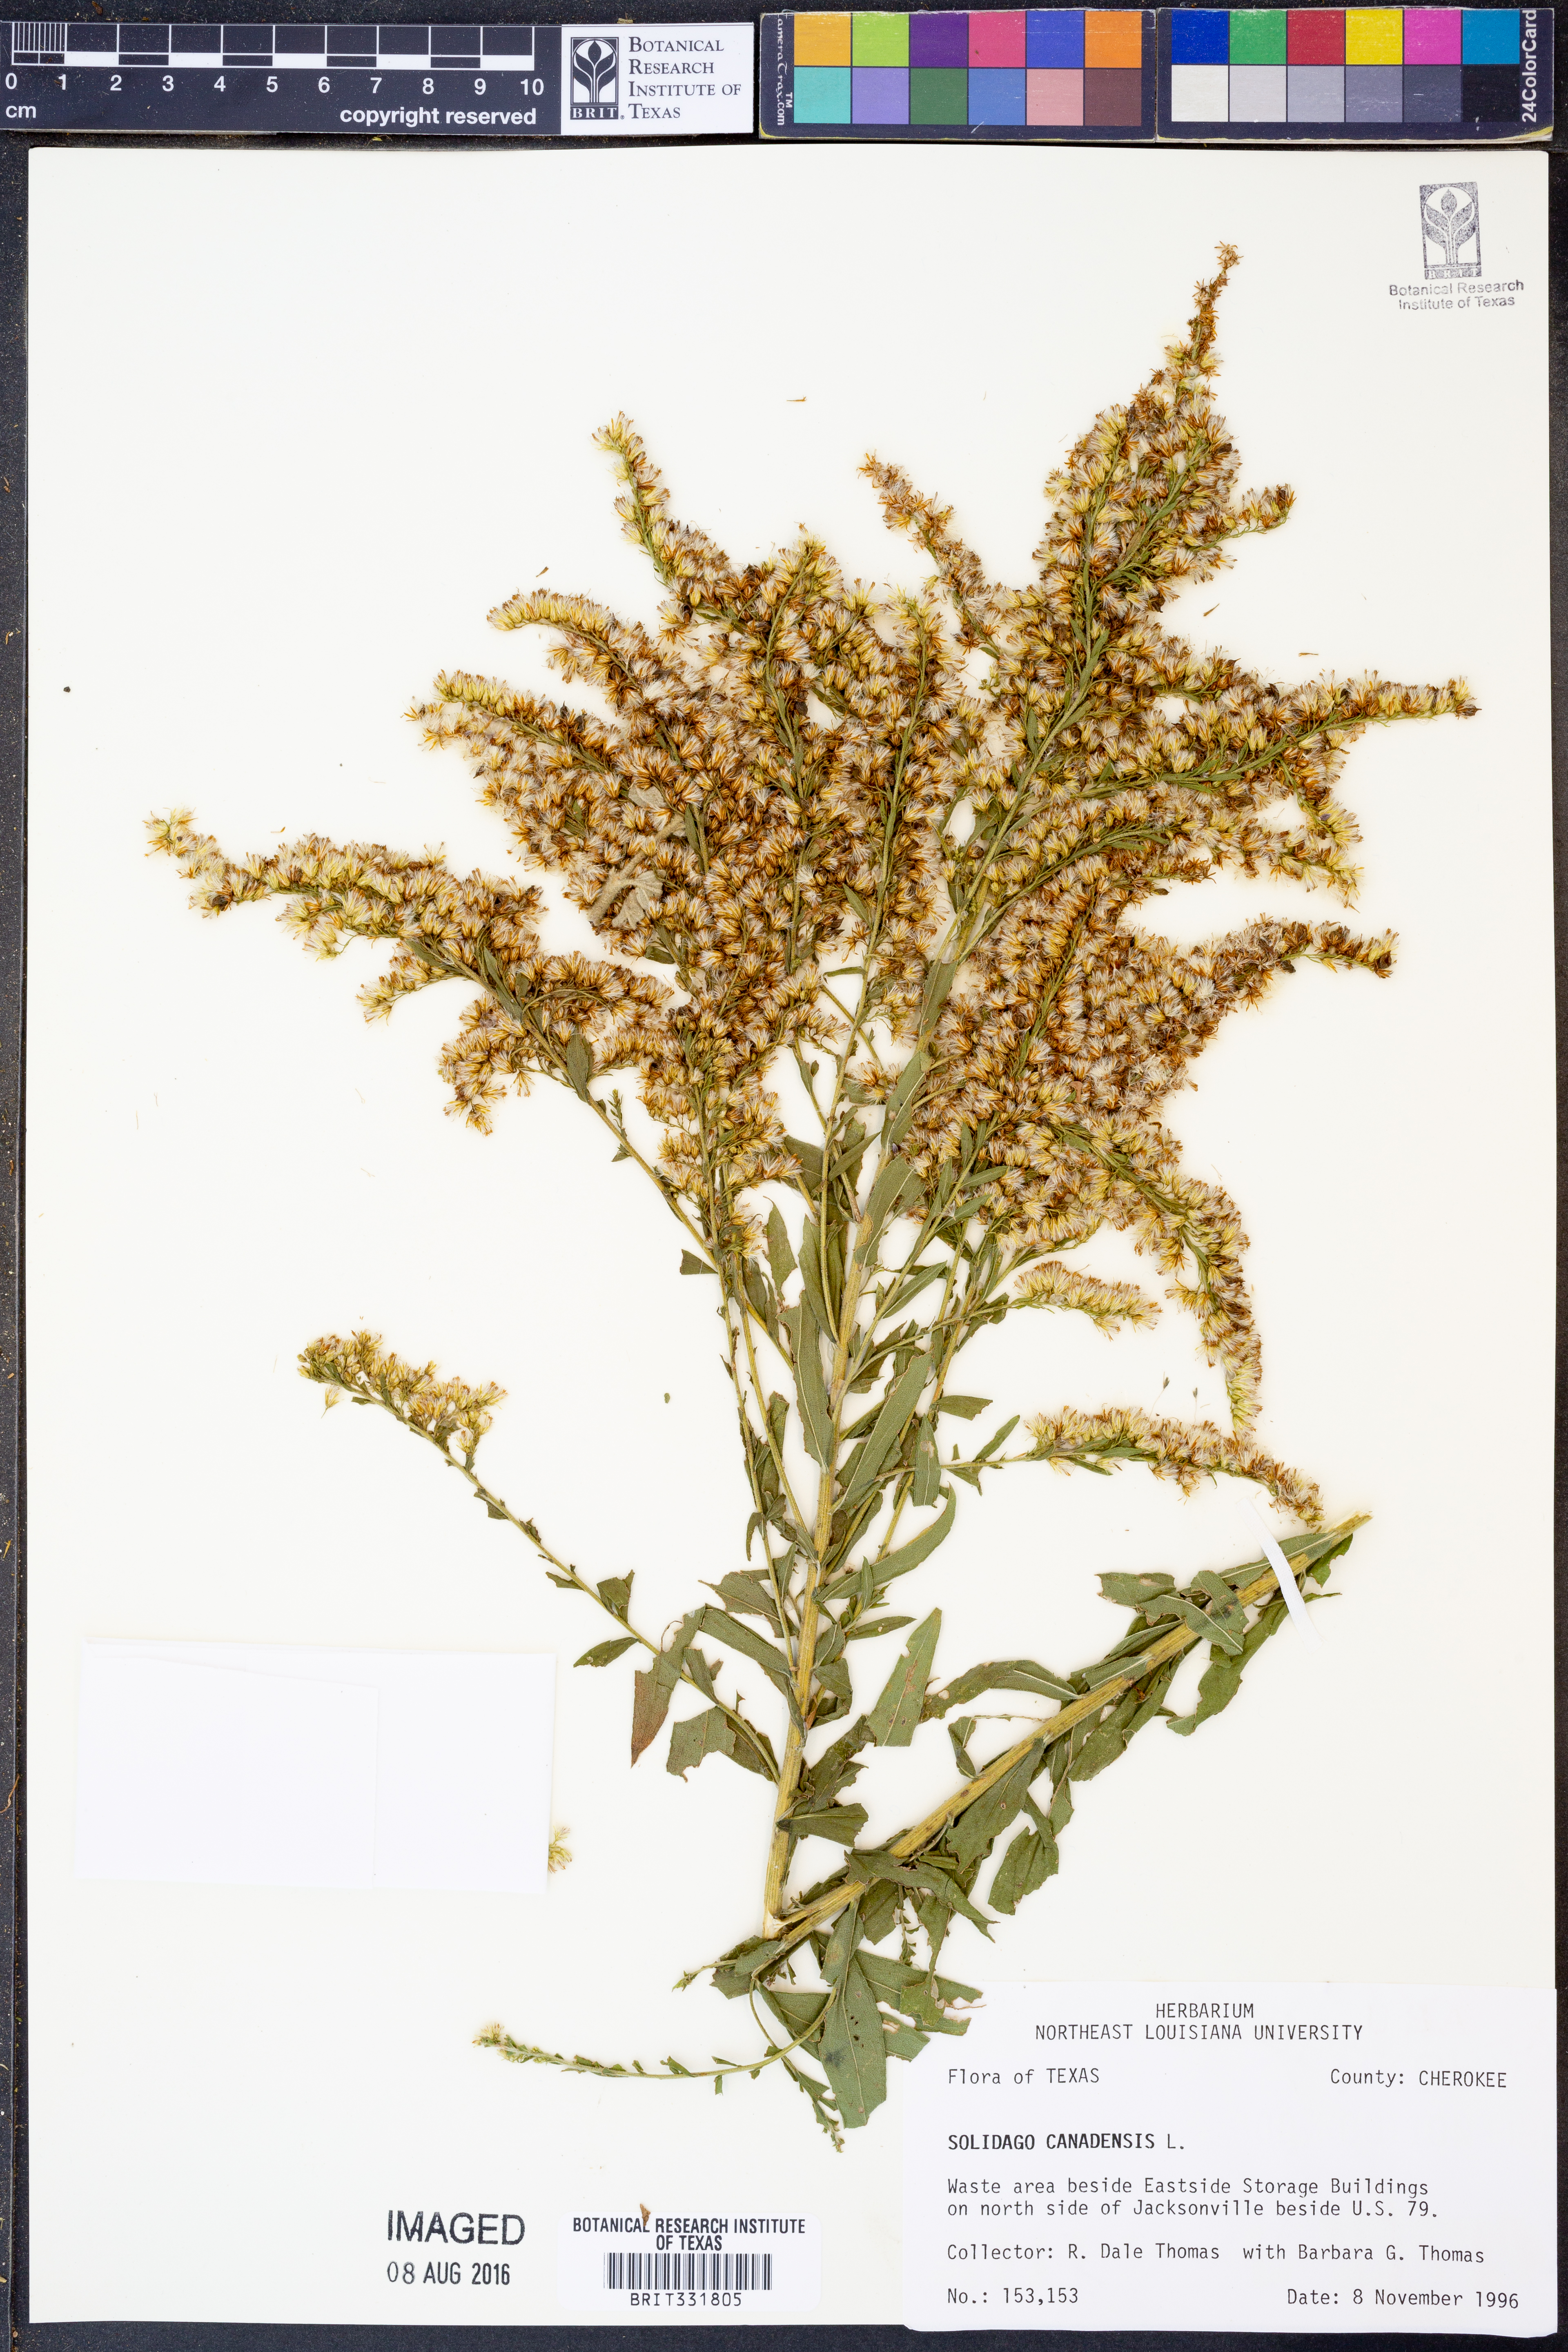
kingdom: Plantae
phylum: Tracheophyta
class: Magnoliopsida
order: Asterales
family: Asteraceae
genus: Solidago
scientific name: Solidago canadensis
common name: Canada goldenrod
